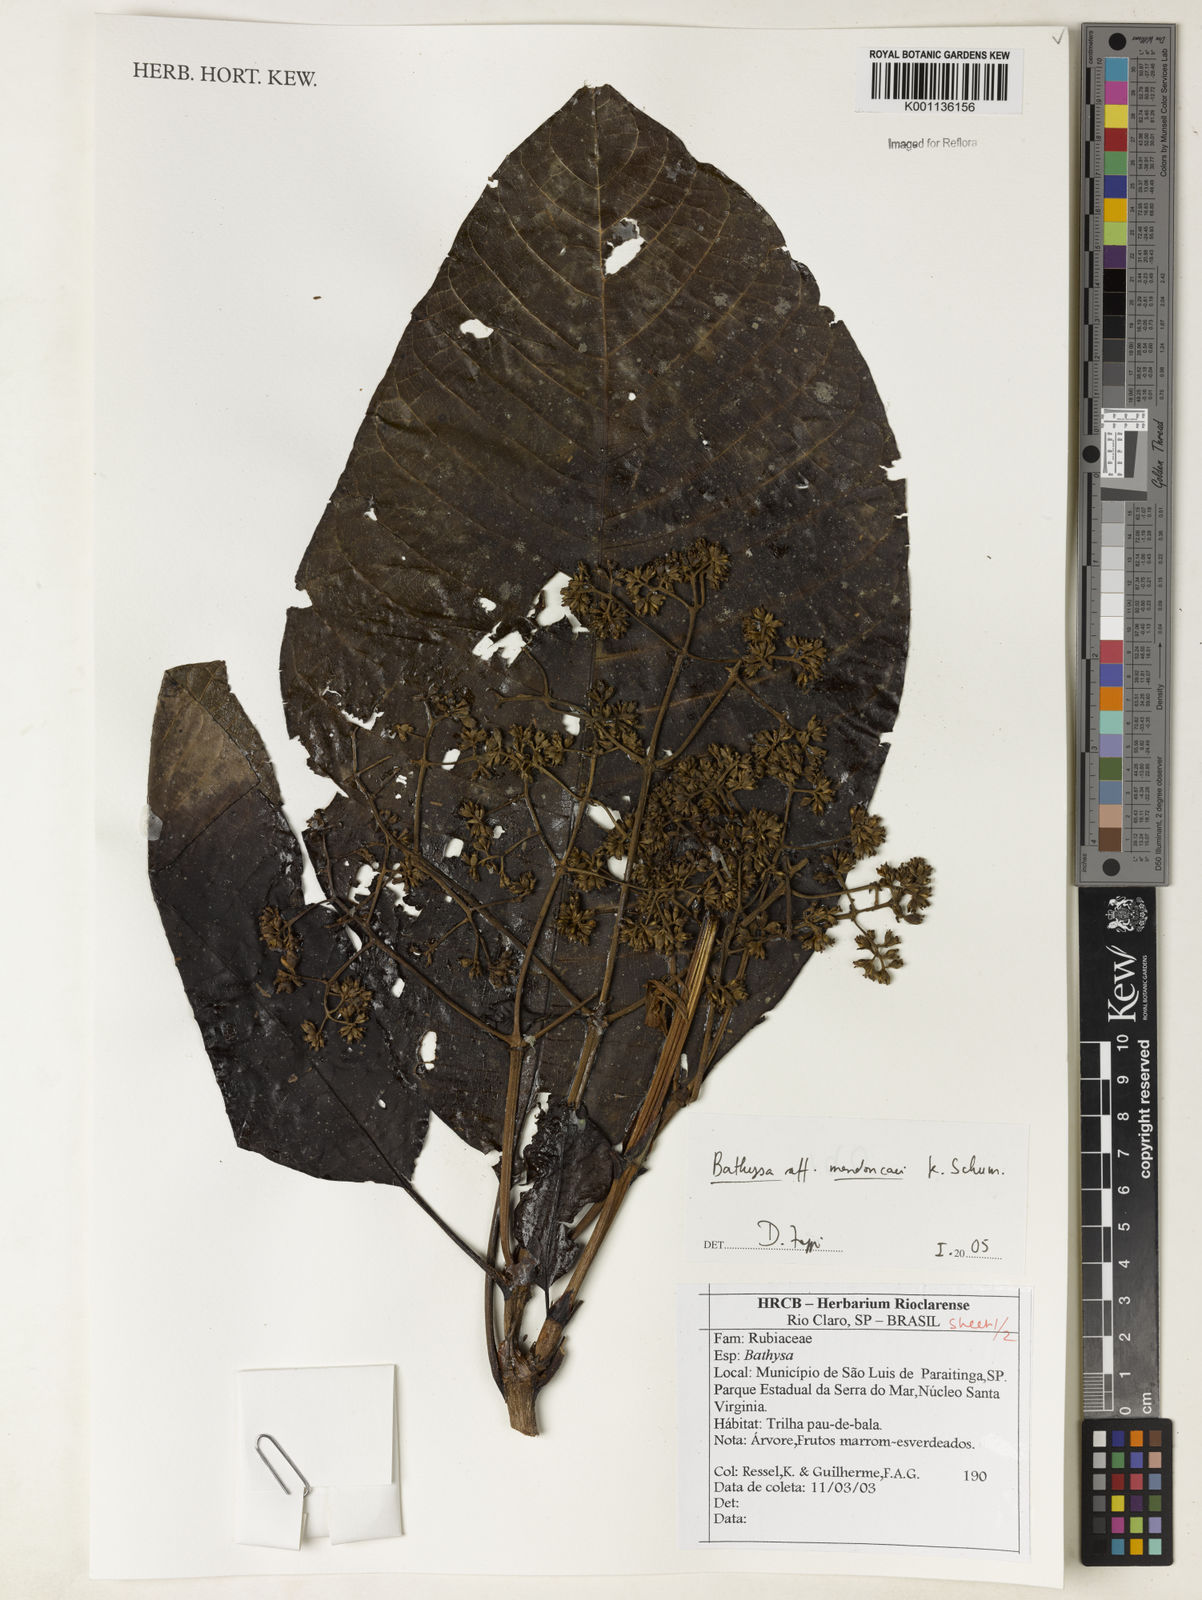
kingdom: Plantae
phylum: Tracheophyta
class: Magnoliopsida
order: Gentianales
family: Rubiaceae
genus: Bathysa
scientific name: Bathysa
